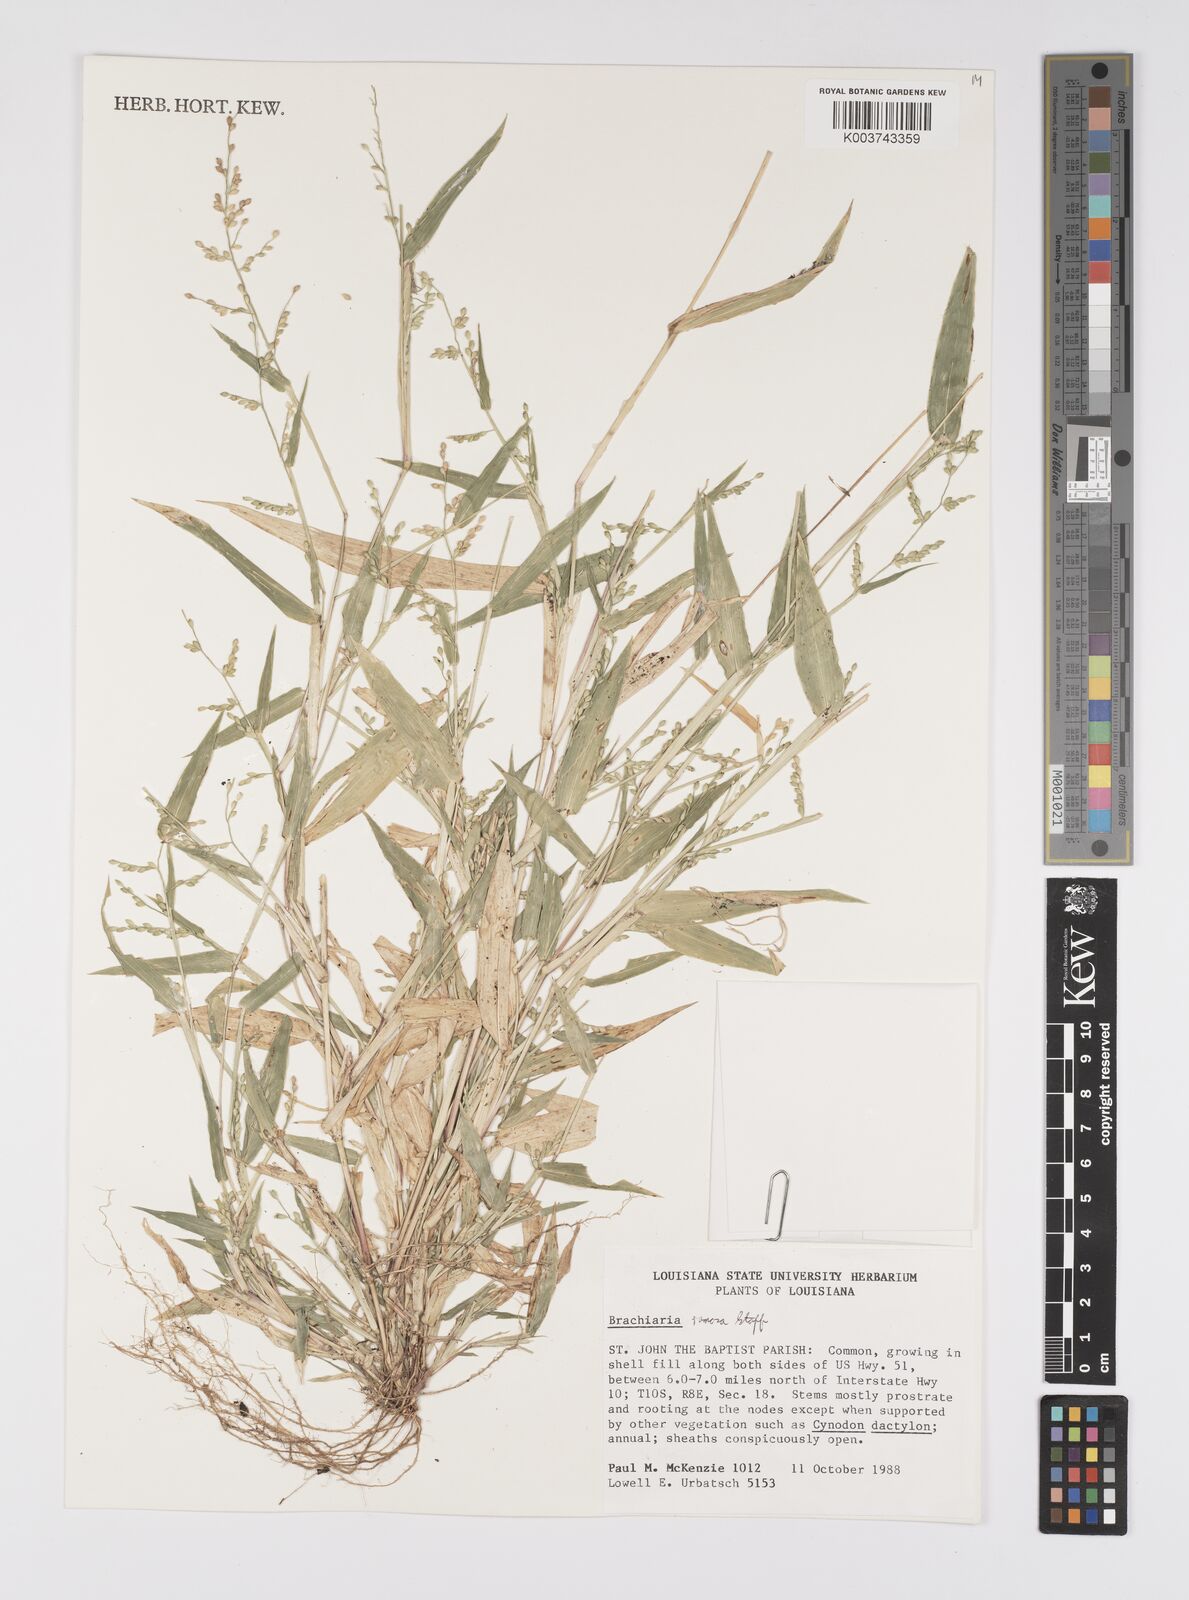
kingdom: Plantae
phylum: Tracheophyta
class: Liliopsida
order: Poales
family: Poaceae
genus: Urochloa
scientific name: Urochloa ramosa
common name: Browntop millet
